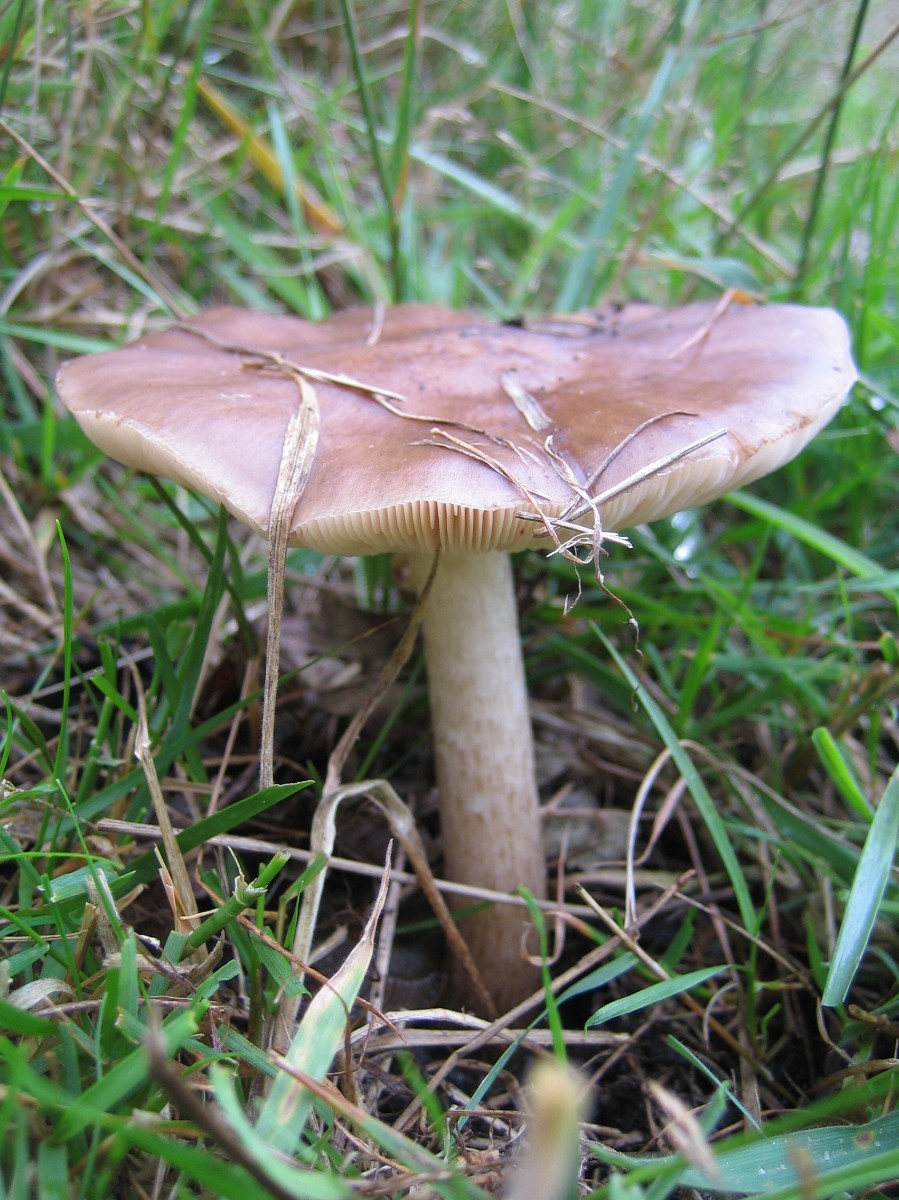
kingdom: Fungi
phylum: Basidiomycota
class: Agaricomycetes
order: Agaricales
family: Pluteaceae
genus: Pluteus
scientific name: Pluteus cervinus
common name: sodfarvet skærmhat
